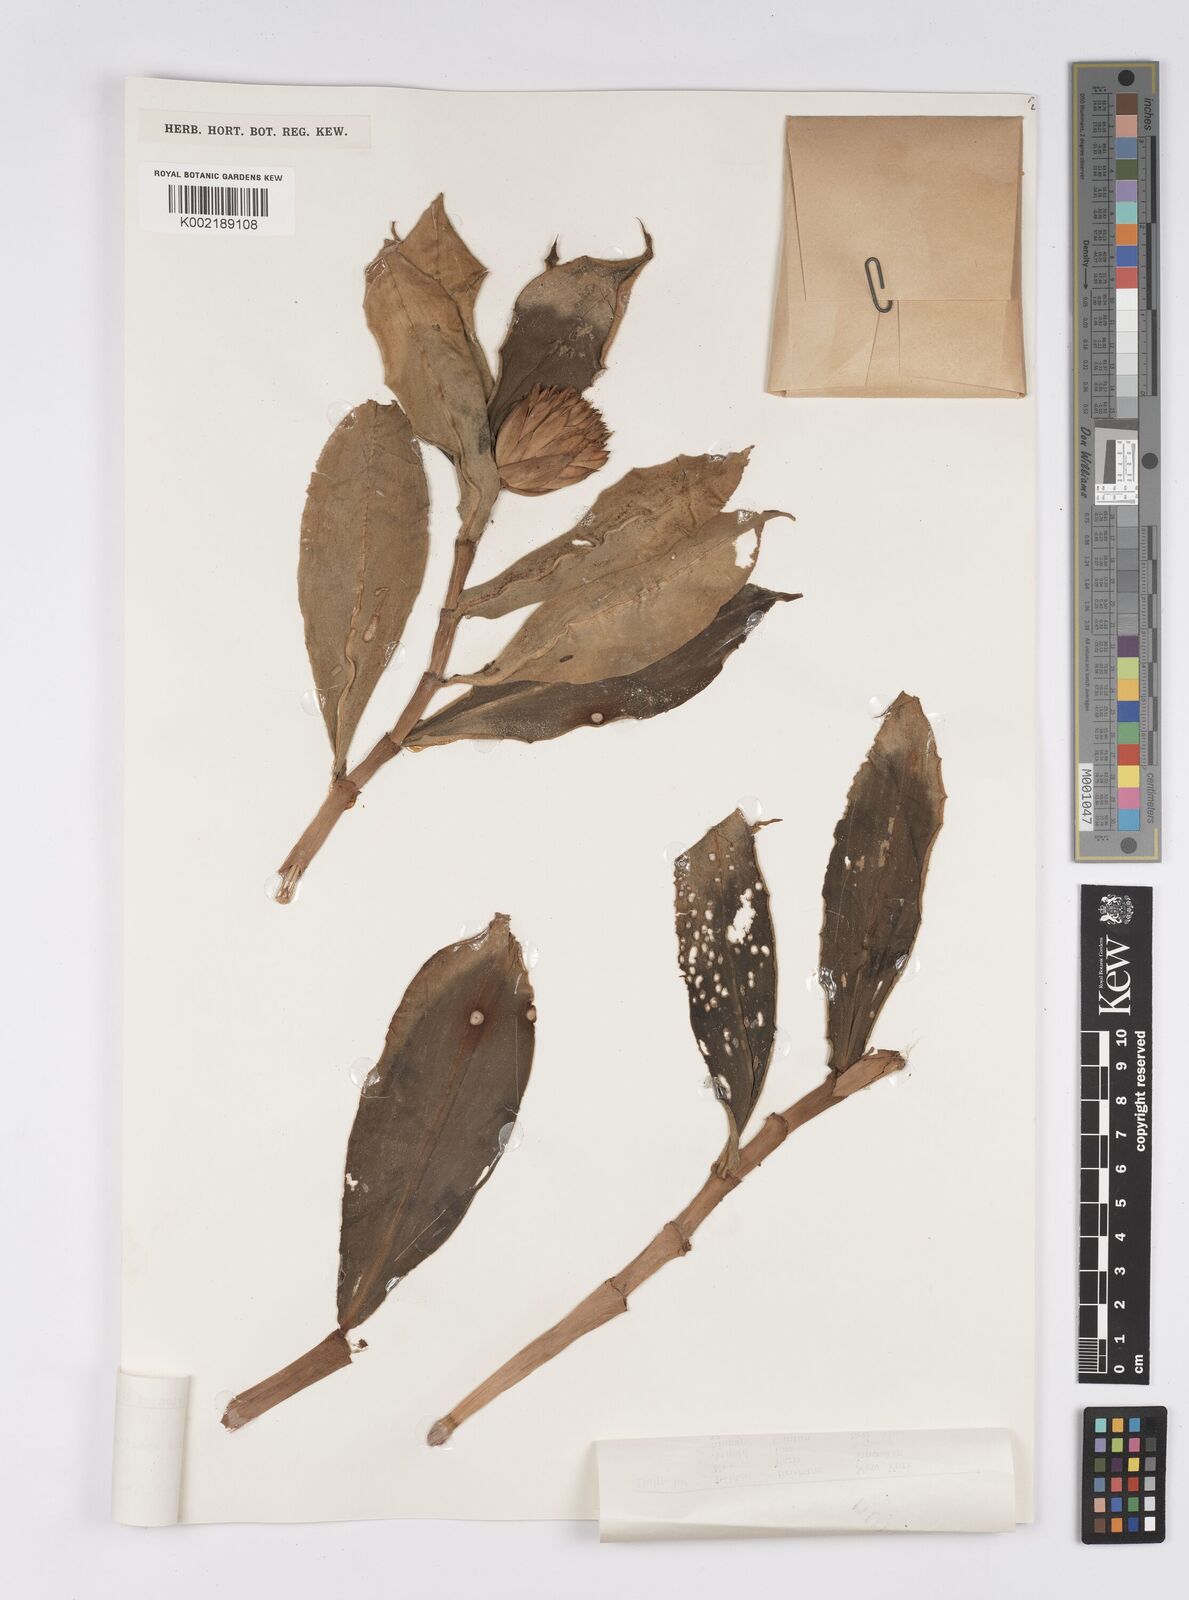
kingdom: Plantae
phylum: Tracheophyta
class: Liliopsida
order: Zingiberales
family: Costaceae
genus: Hellenia
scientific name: Hellenia speciosa
